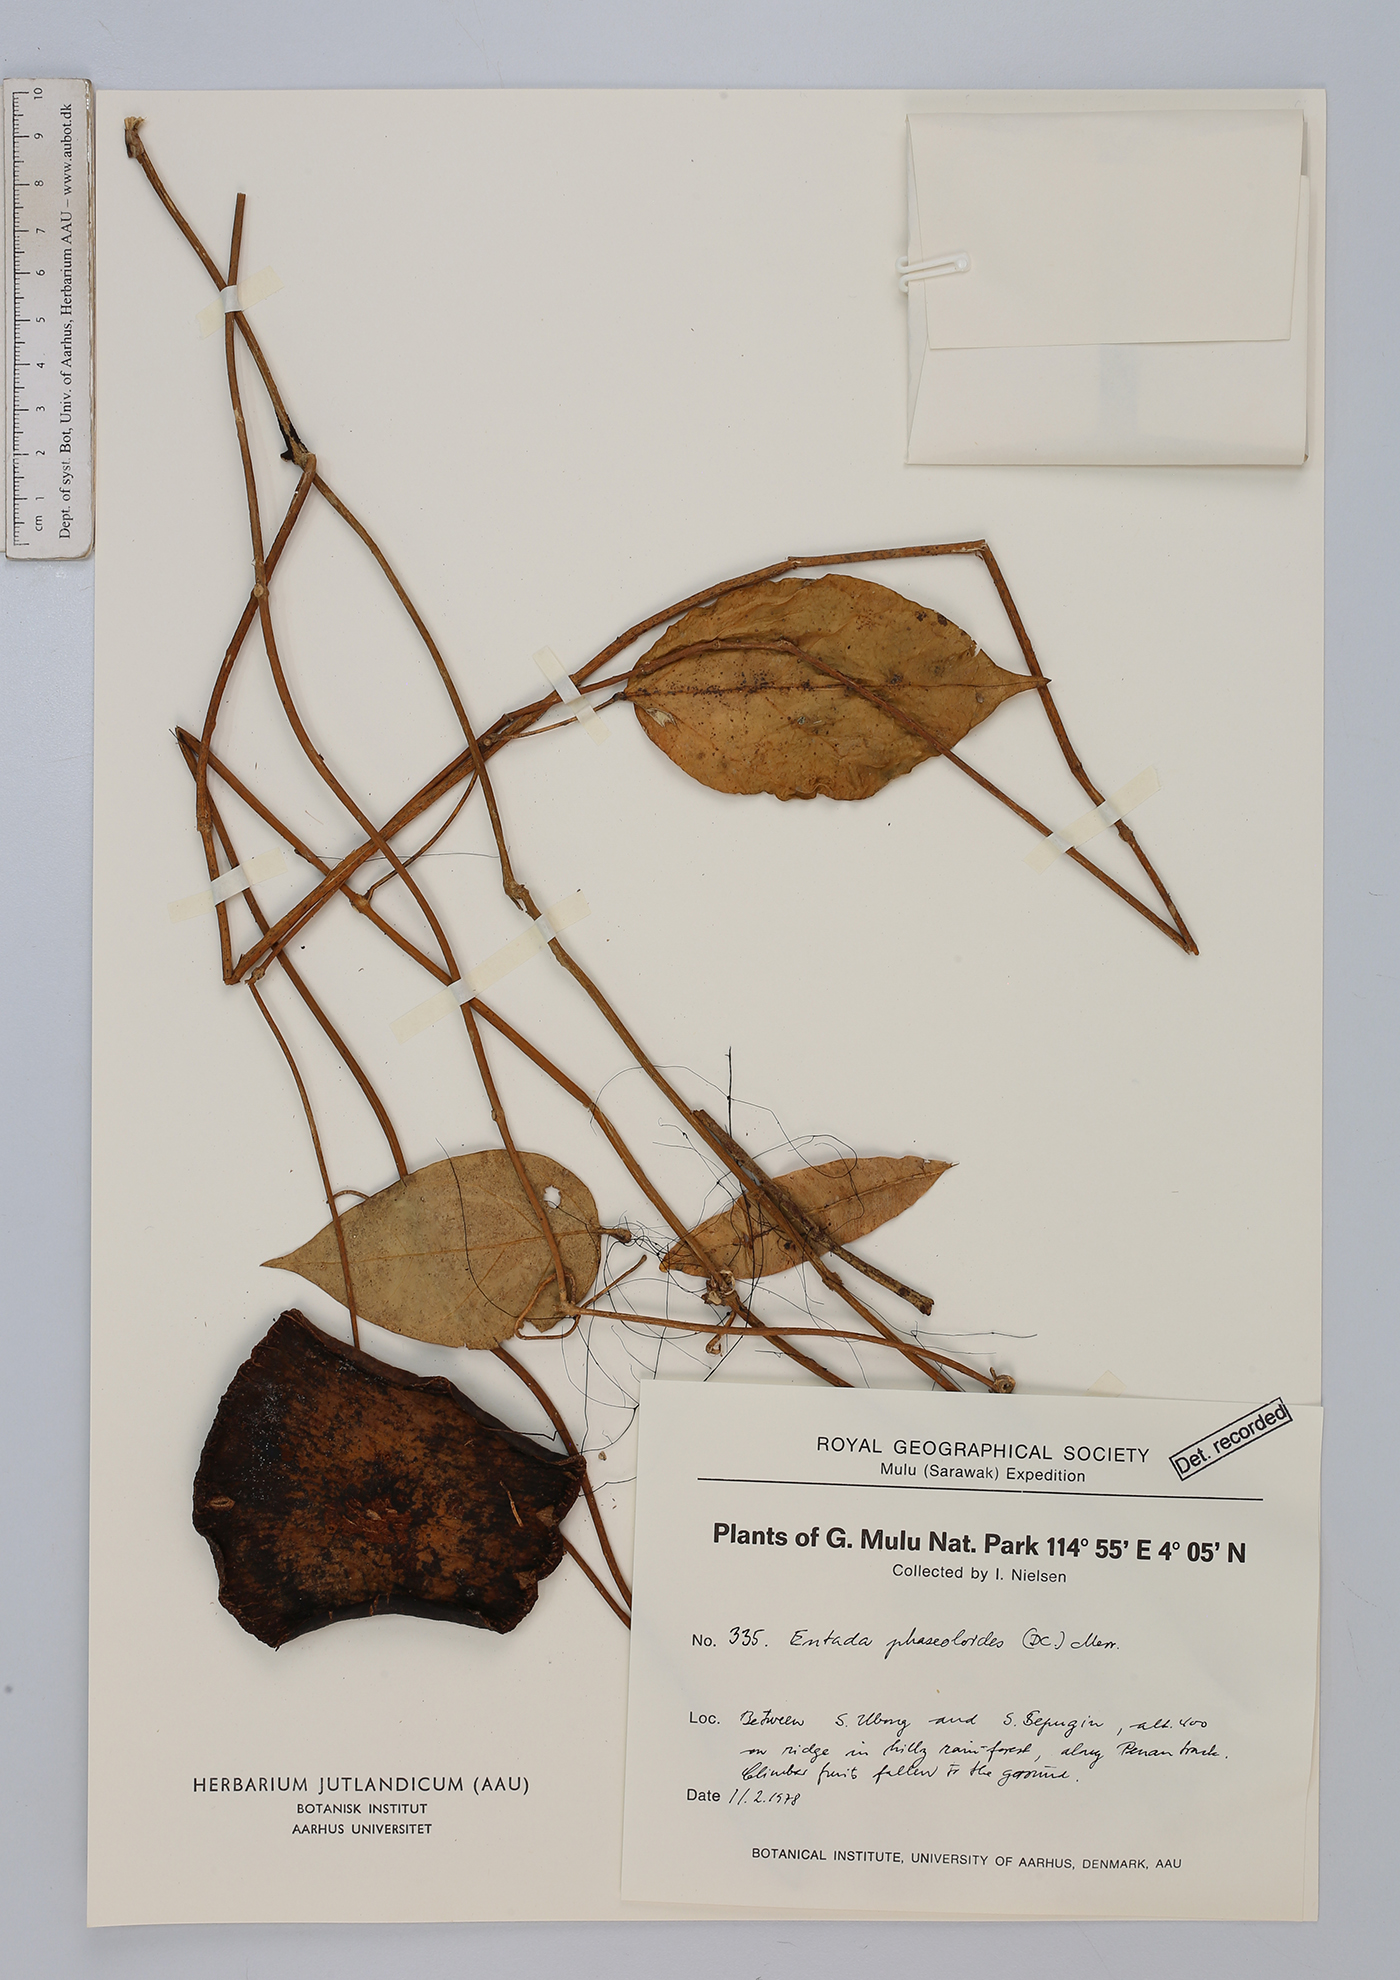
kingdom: Plantae
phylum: Tracheophyta
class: Magnoliopsida
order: Fabales
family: Fabaceae
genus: Entada
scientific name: Entada phaseoloides
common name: Matchbox-bean
